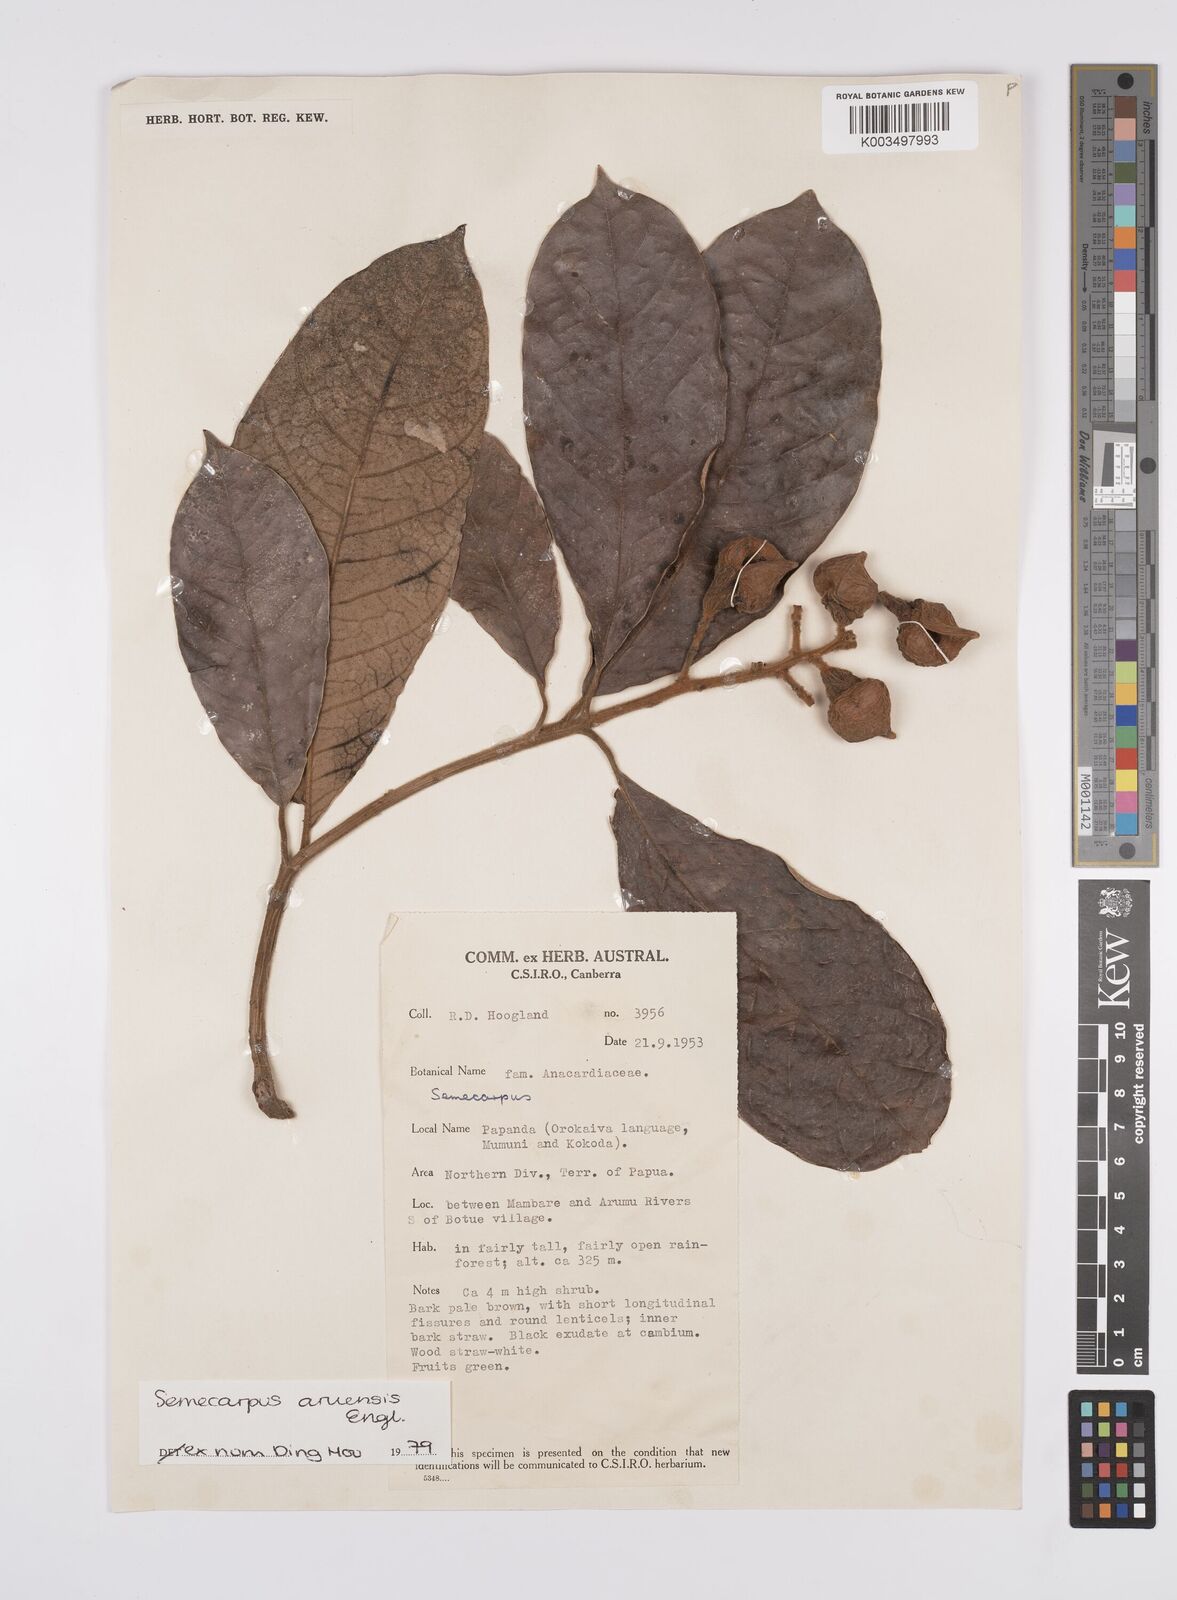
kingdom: Plantae
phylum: Tracheophyta
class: Magnoliopsida
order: Sapindales
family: Anacardiaceae
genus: Semecarpus
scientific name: Semecarpus aruensis
